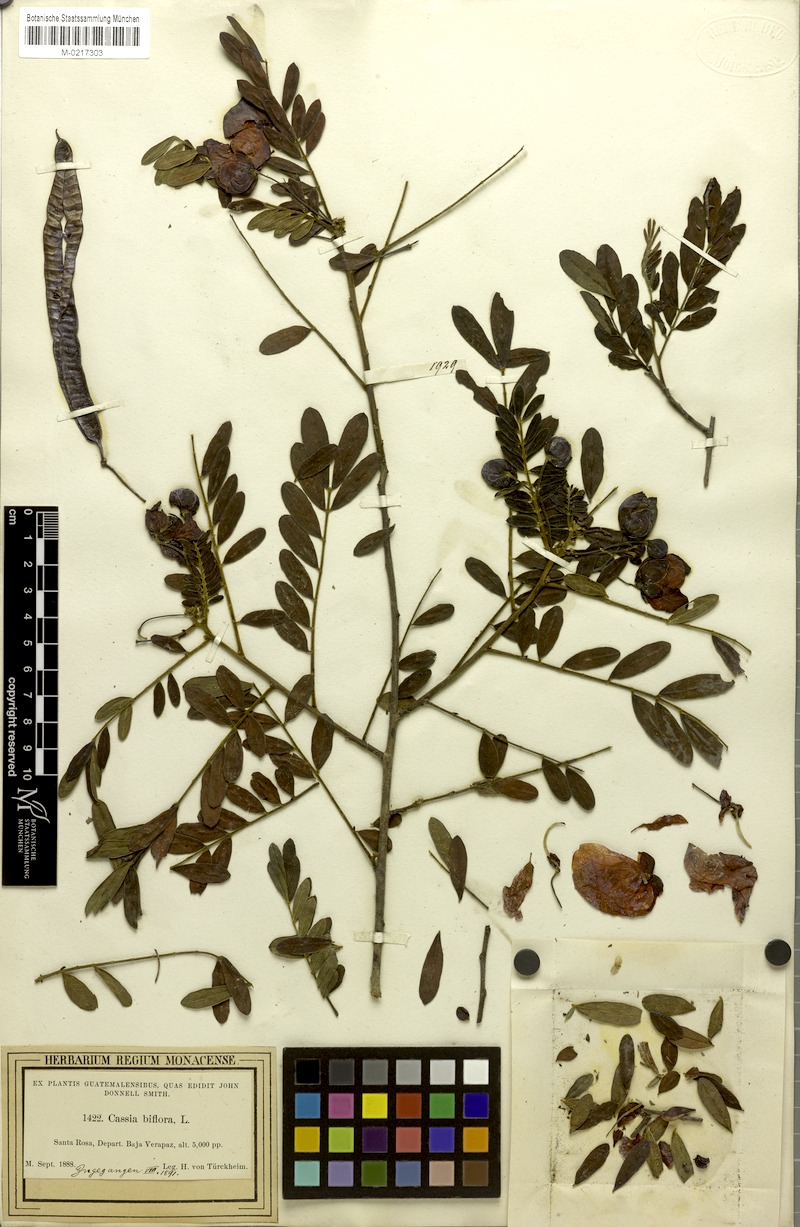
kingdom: Plantae
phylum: Tracheophyta
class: Magnoliopsida
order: Fabales
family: Fabaceae
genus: Senna
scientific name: Senna pallida
